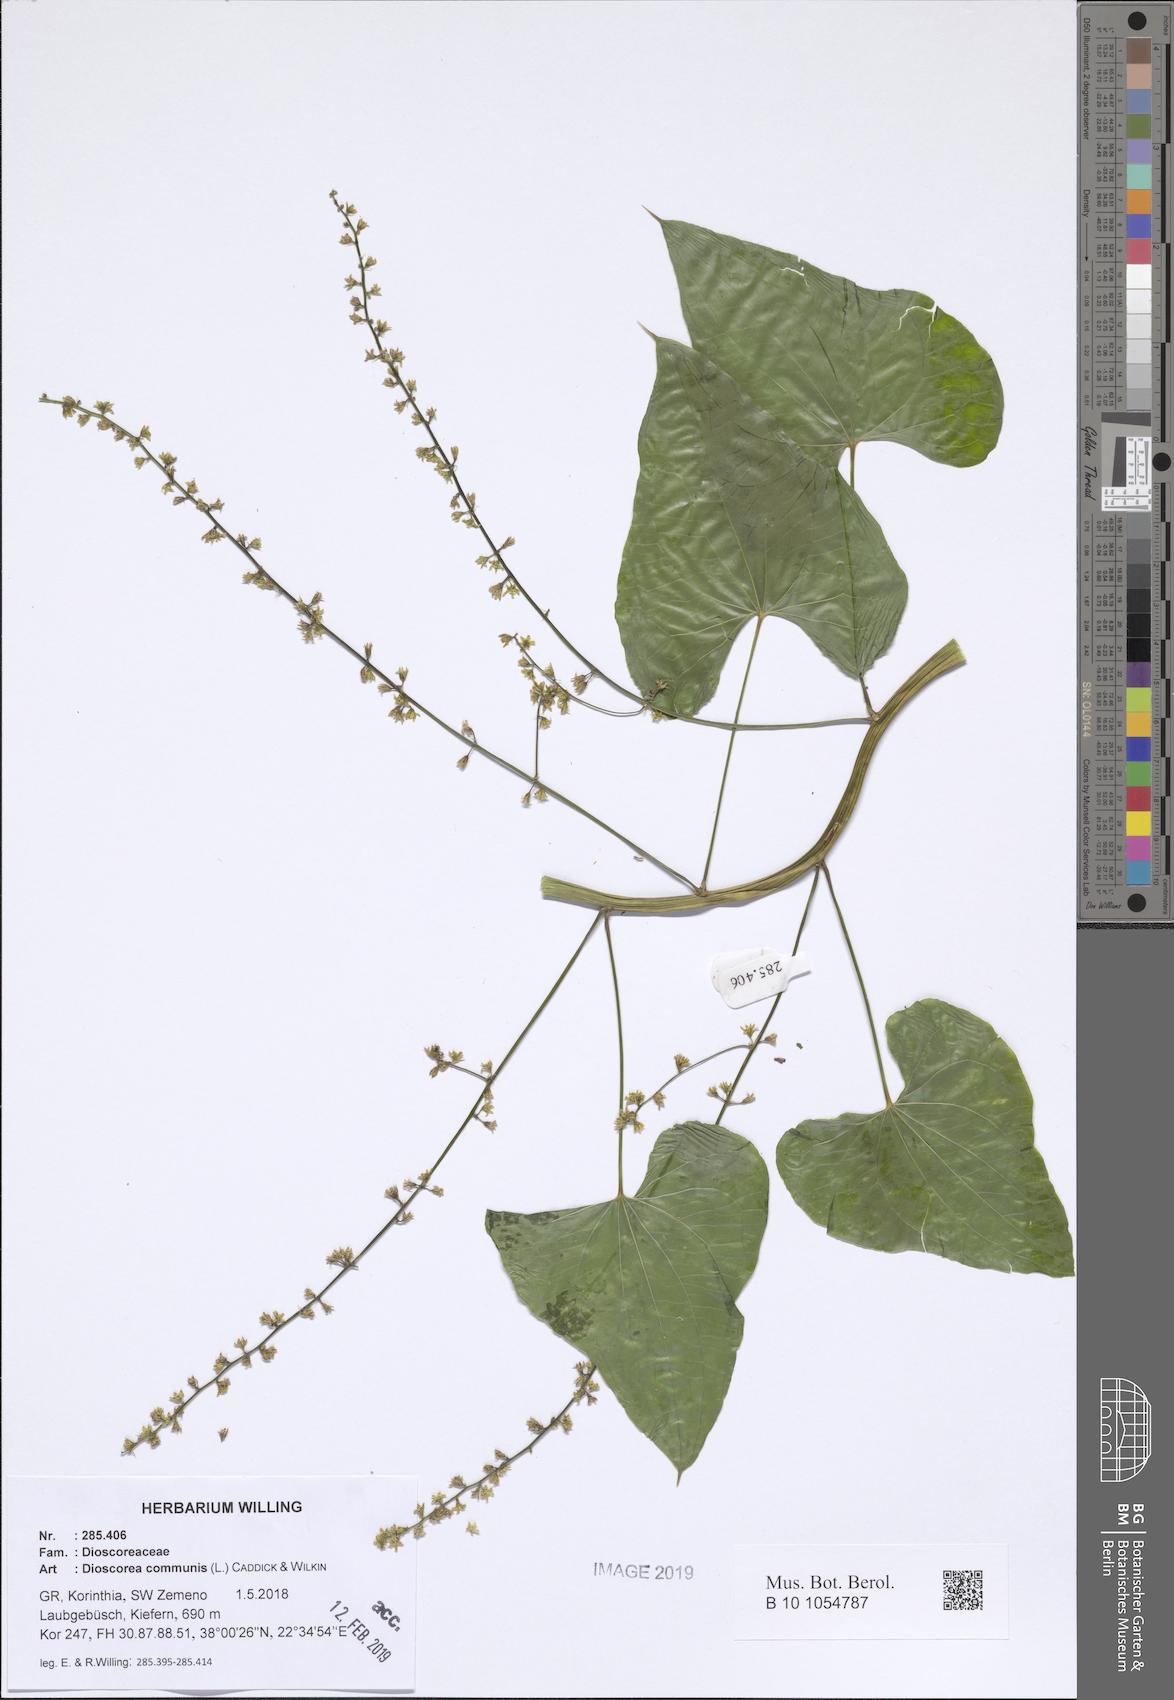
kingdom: Plantae
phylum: Tracheophyta
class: Liliopsida
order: Dioscoreales
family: Dioscoreaceae
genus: Dioscorea
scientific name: Dioscorea communis
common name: Black-bindweed
